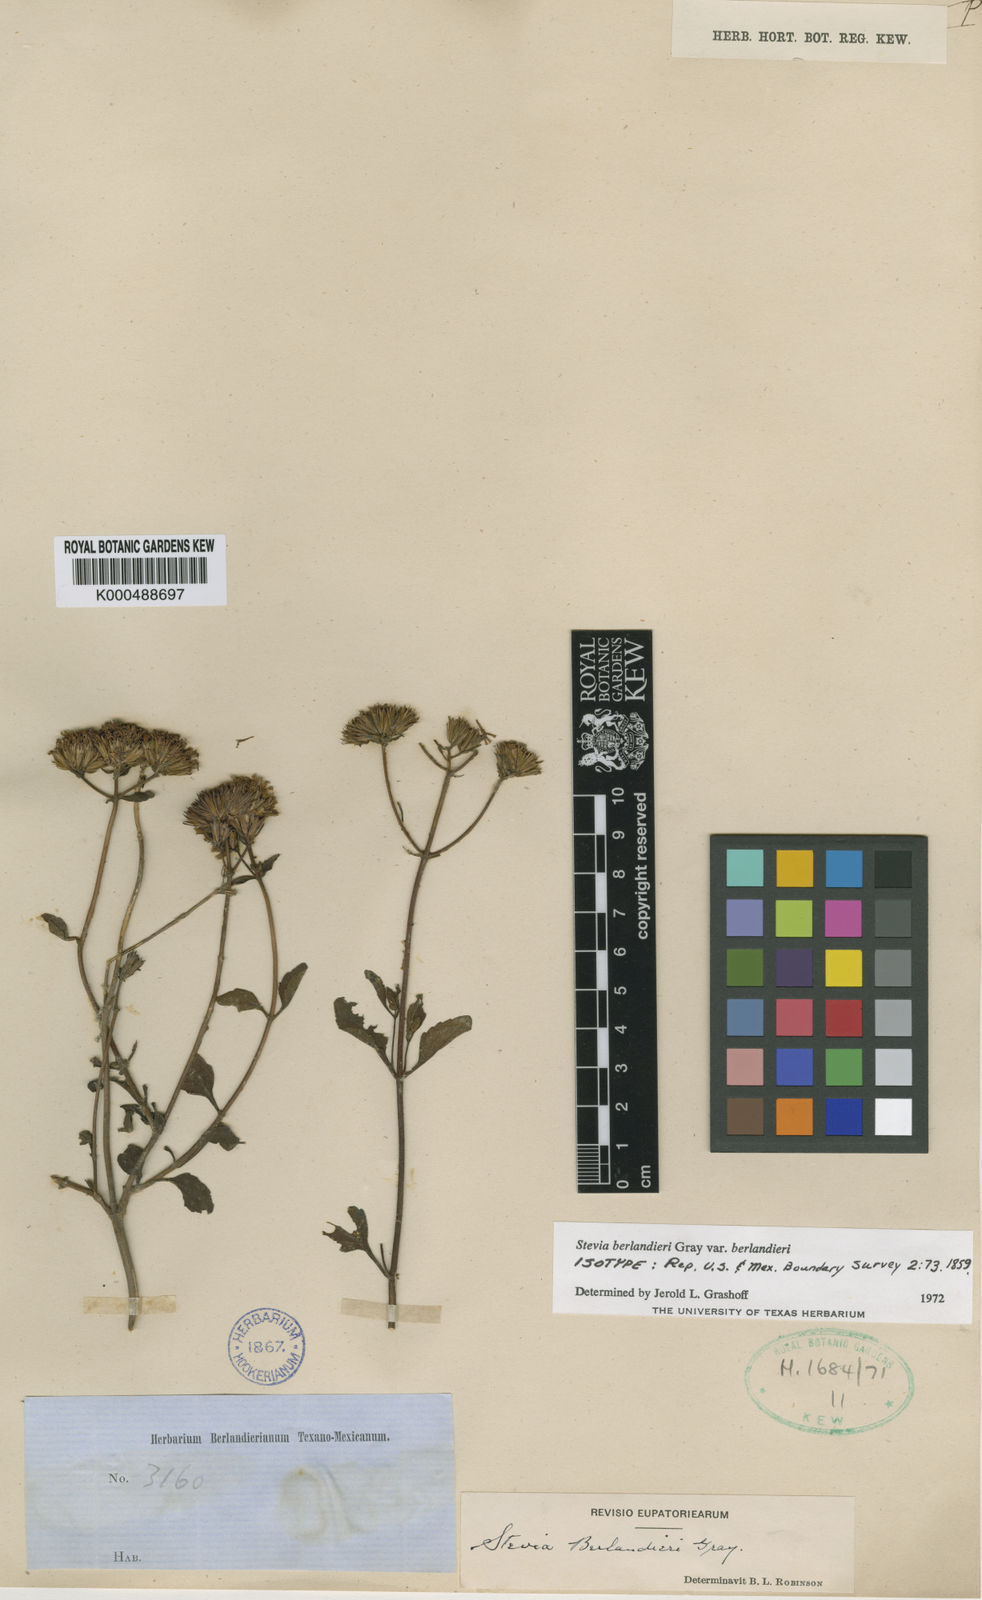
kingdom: Plantae
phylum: Tracheophyta
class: Magnoliopsida
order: Asterales
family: Asteraceae
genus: Stevia
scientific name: Stevia berlandieri
